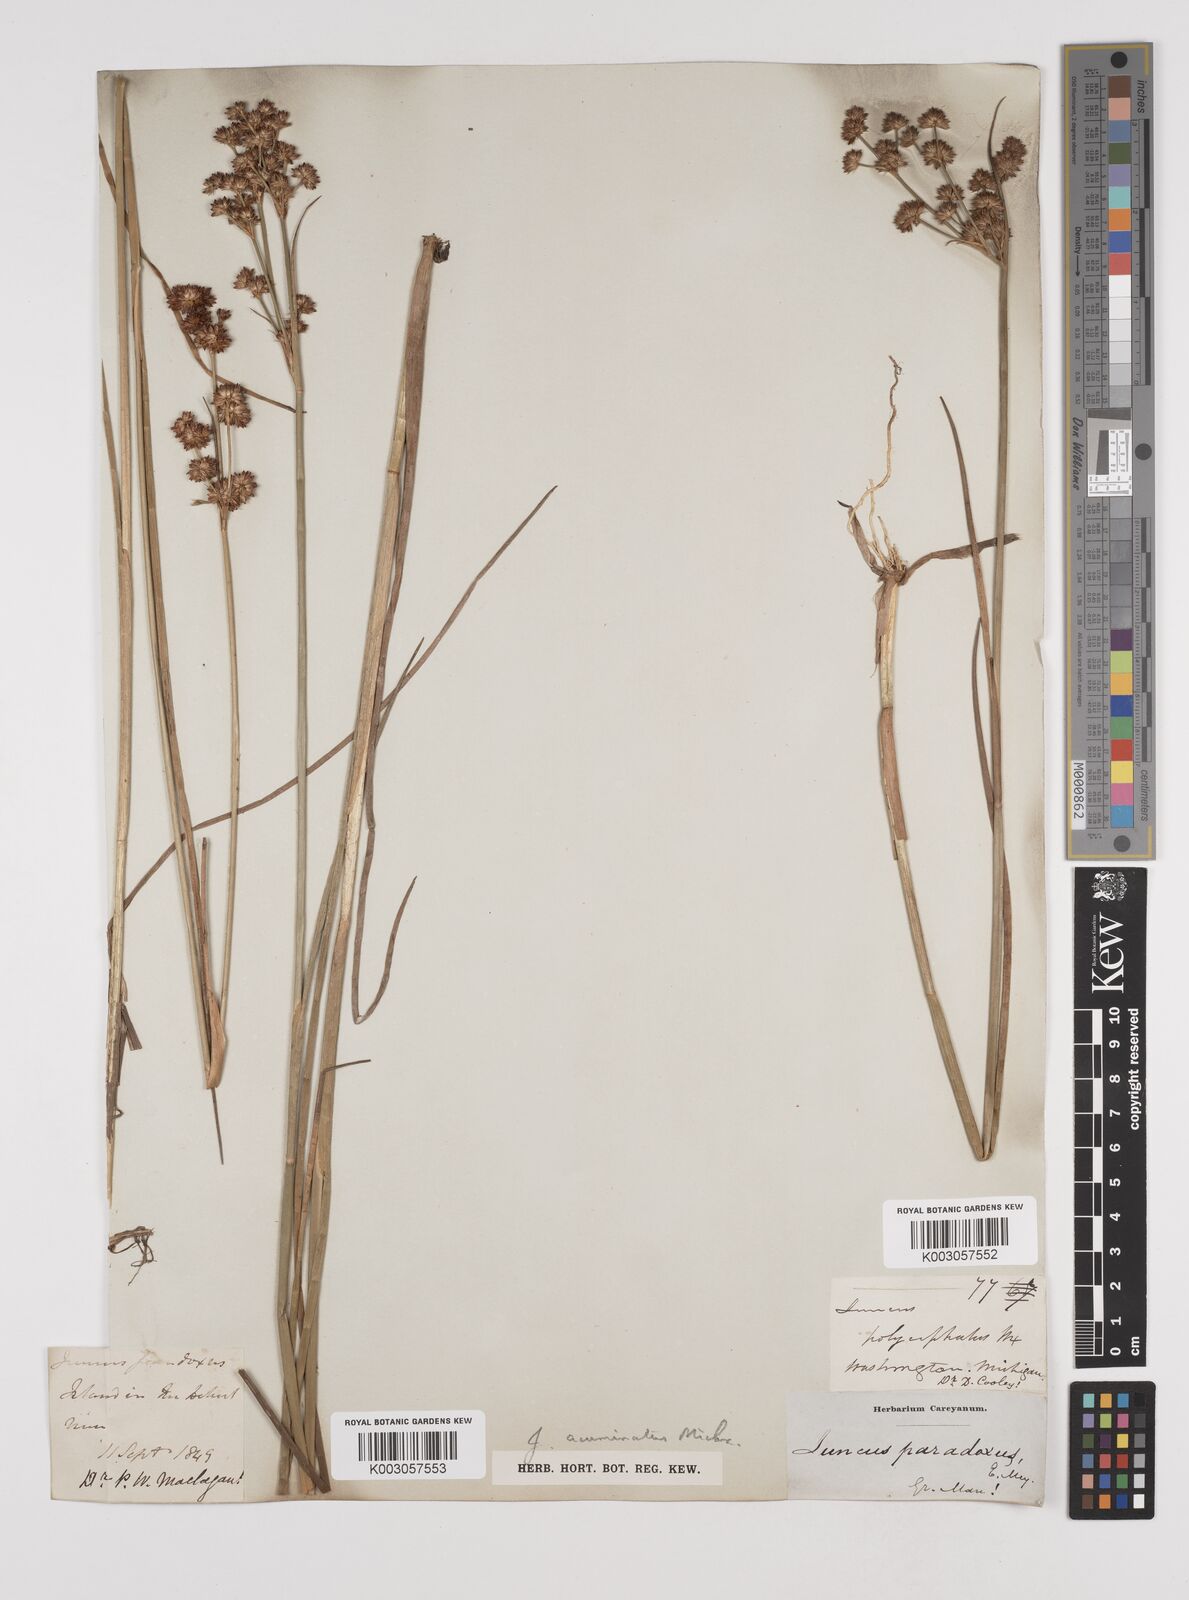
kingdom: Plantae
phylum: Tracheophyta
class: Liliopsida
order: Poales
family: Juncaceae
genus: Juncus
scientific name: Juncus acuminatus
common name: Knotty-leaved rush
